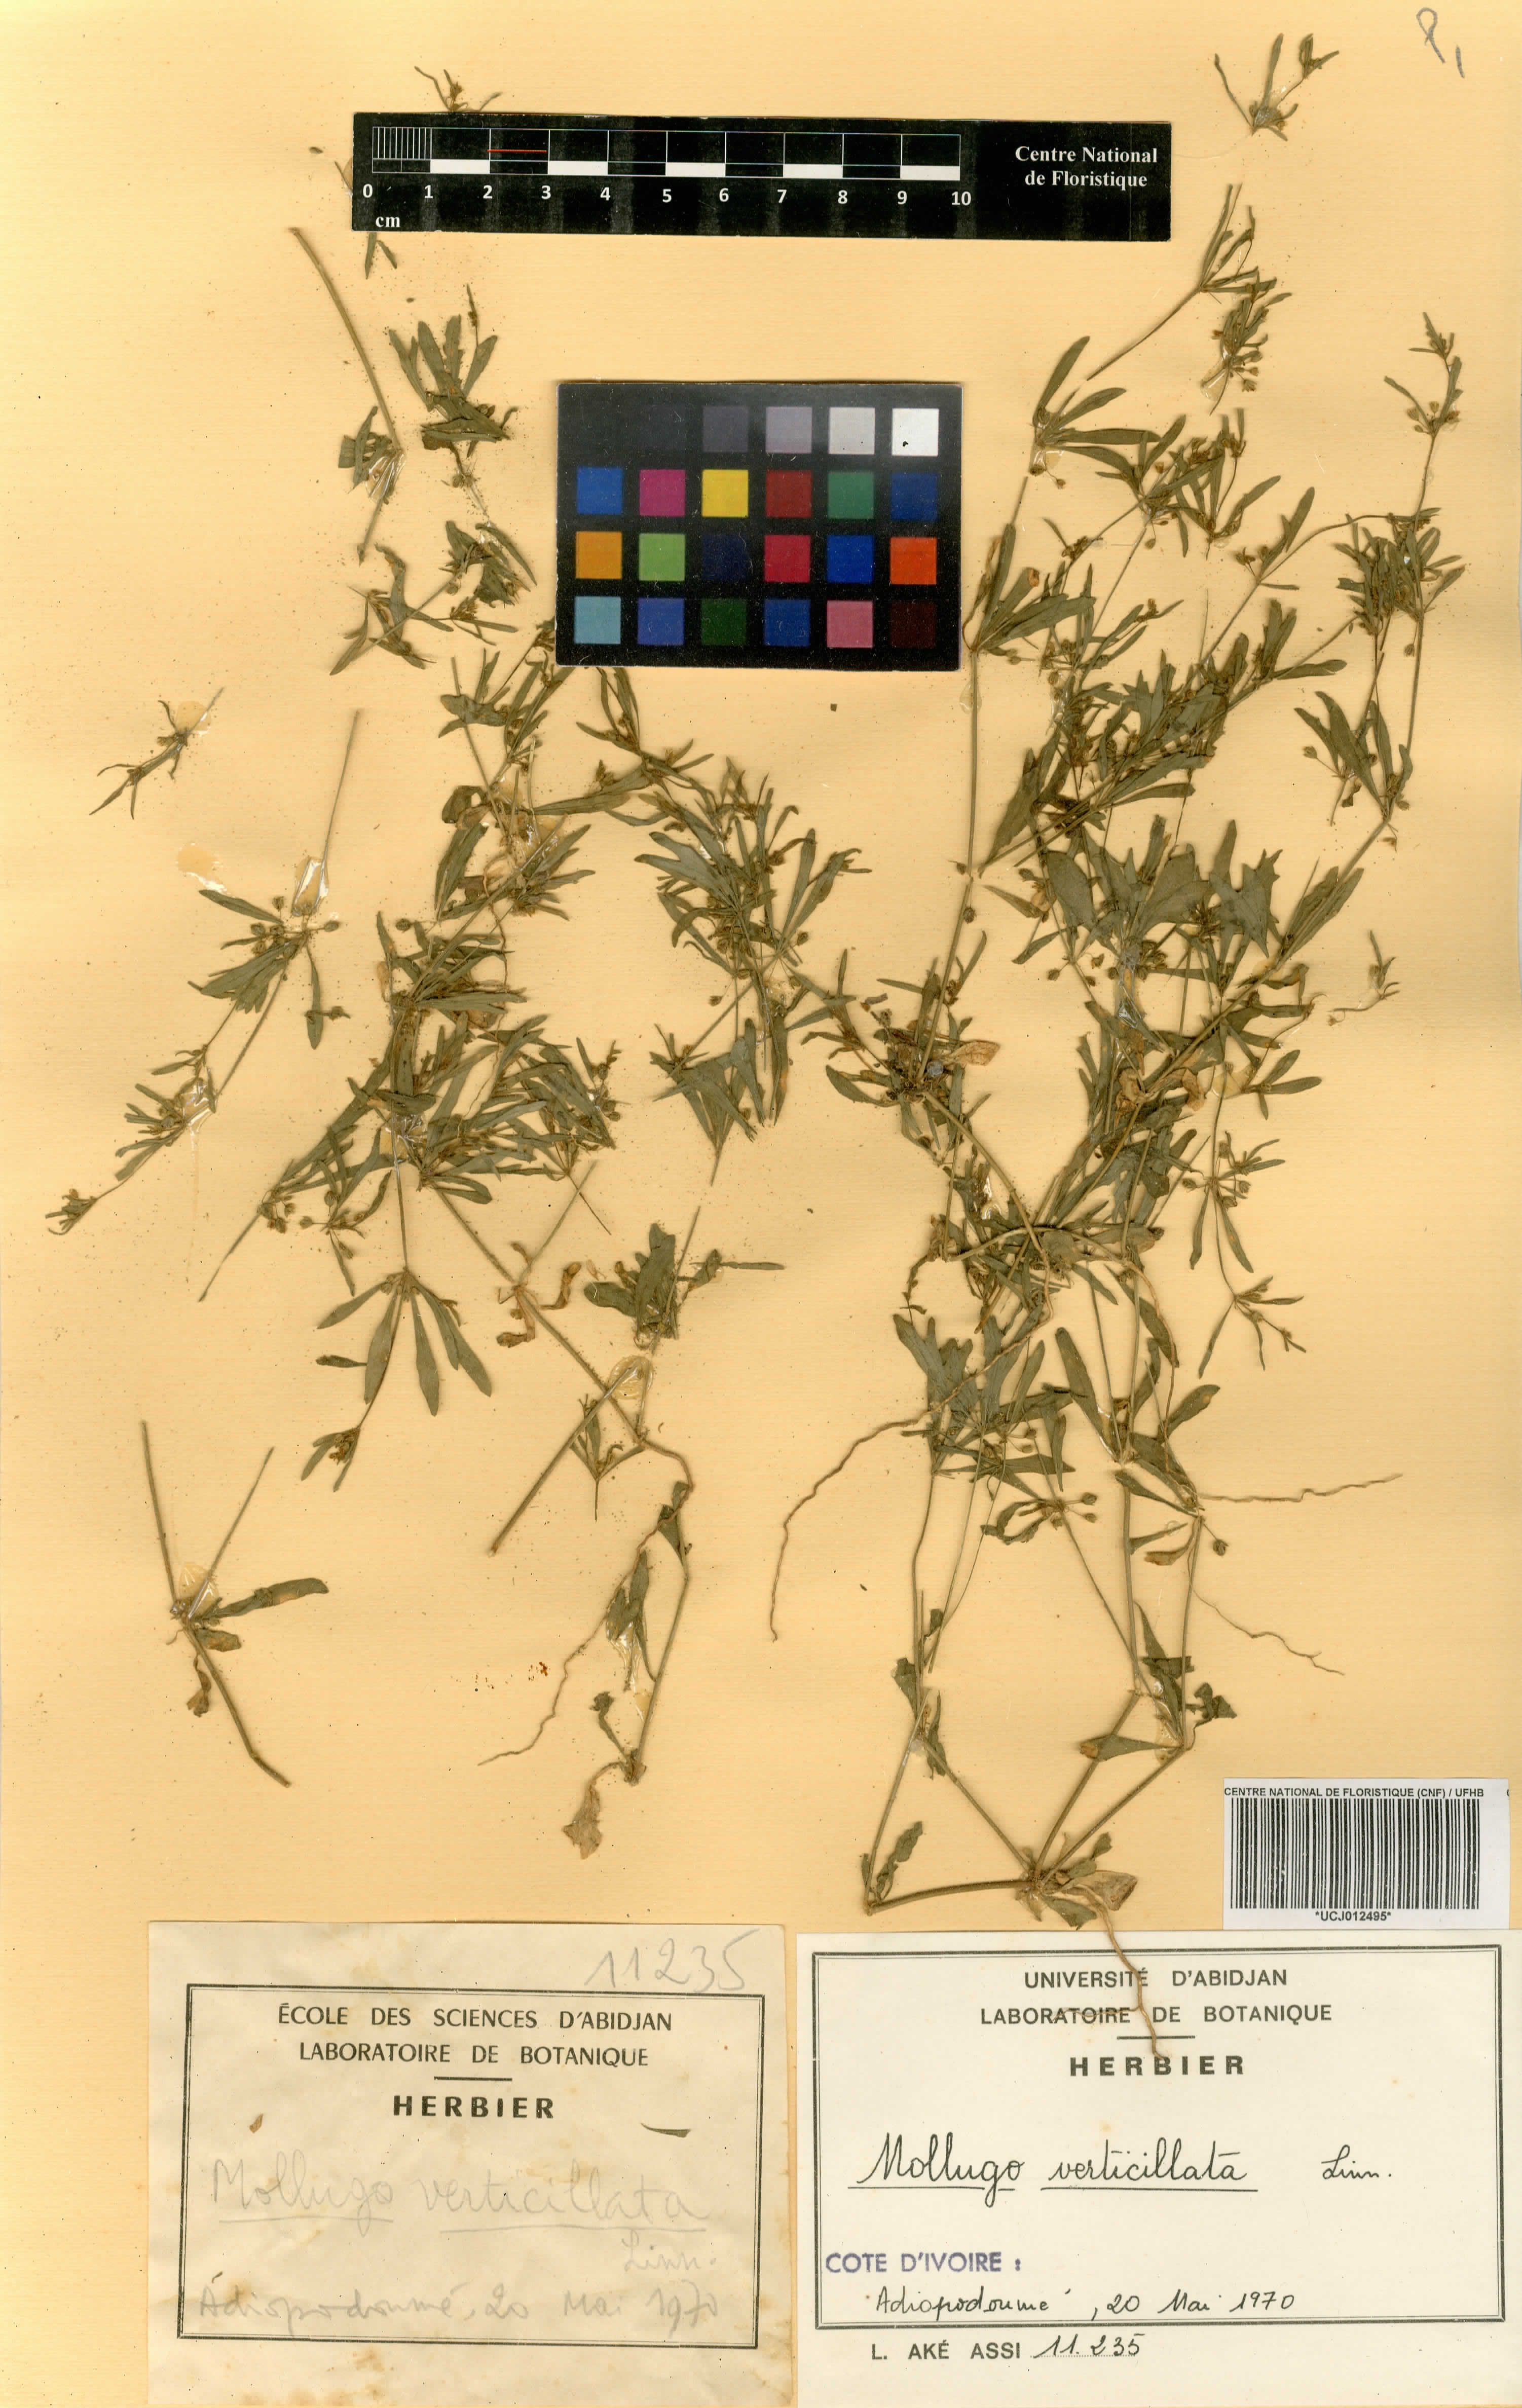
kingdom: Plantae
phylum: Tracheophyta
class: Magnoliopsida
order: Caryophyllales
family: Molluginaceae
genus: Mollugo
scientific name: Mollugo verticillata
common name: Green carpetweed
